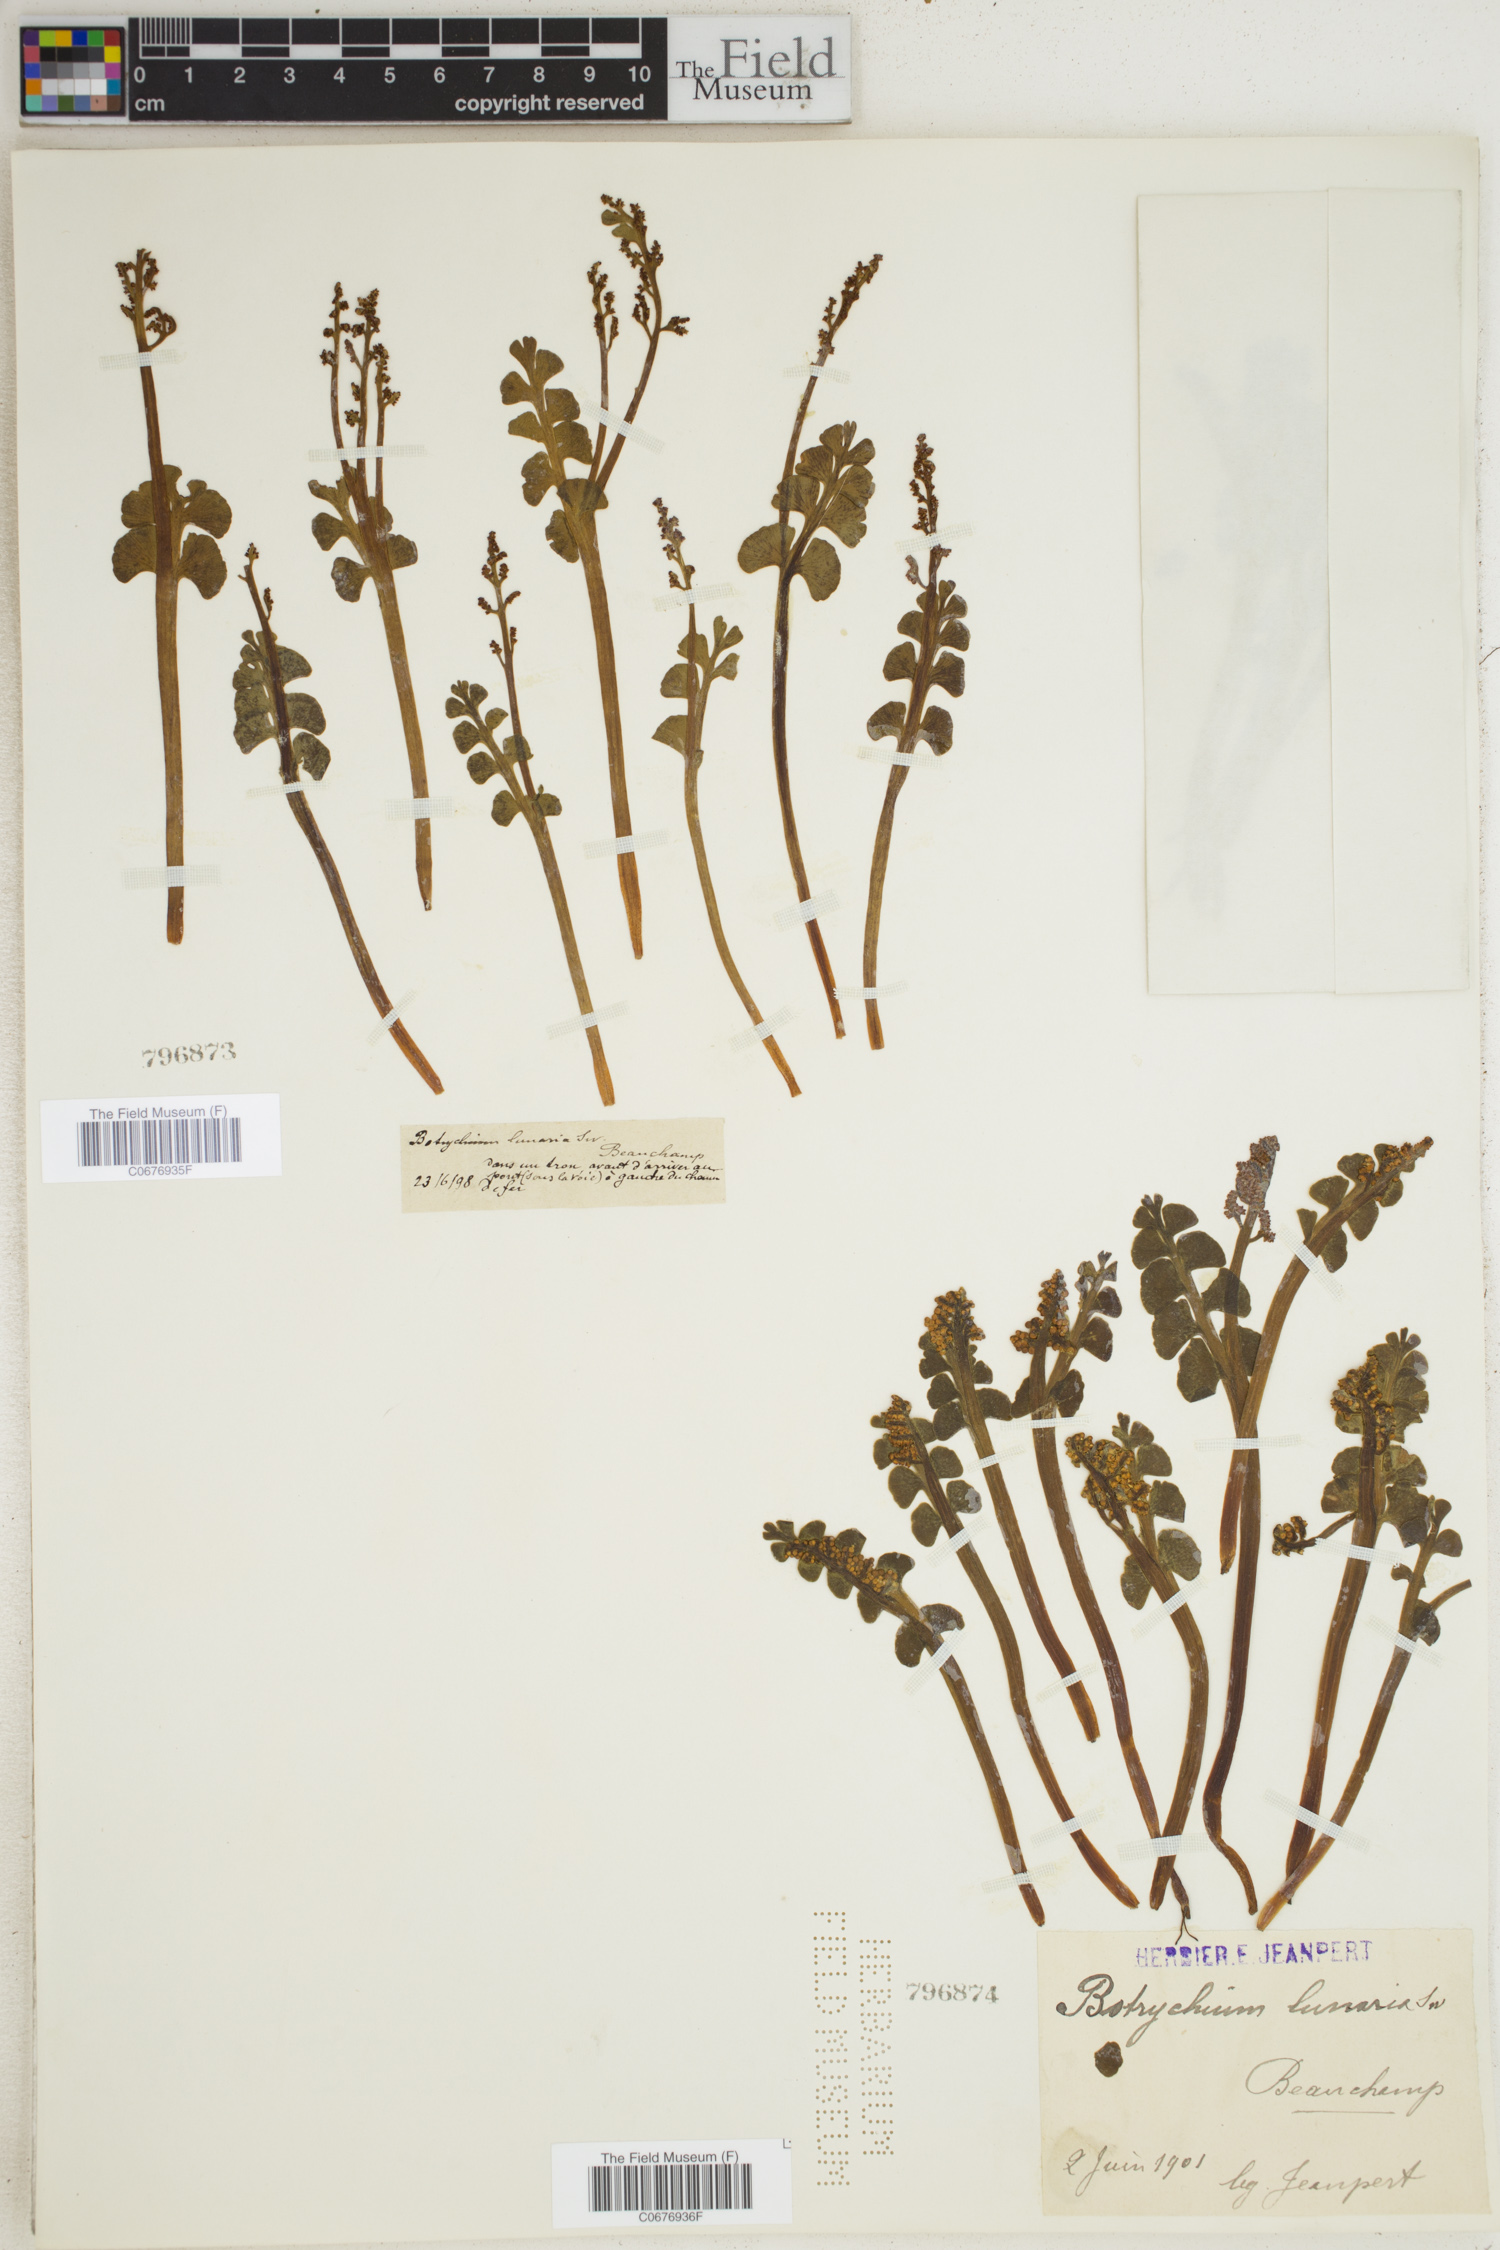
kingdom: Plantae
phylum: Tracheophyta
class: Polypodiopsida
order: Ophioglossales
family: Ophioglossaceae
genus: Botrychium
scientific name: Botrychium lunaria
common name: Moonwort
